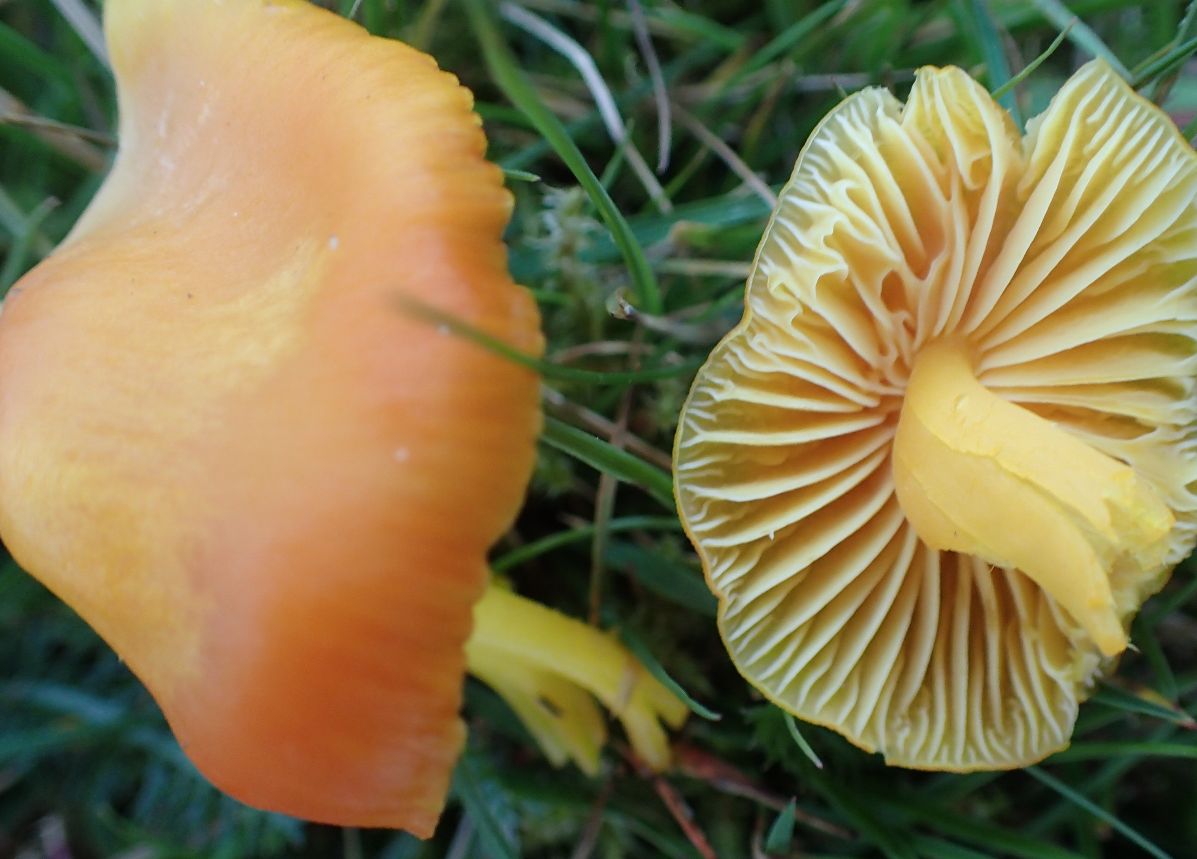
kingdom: Fungi
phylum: Basidiomycota
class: Agaricomycetes
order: Agaricales
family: Hygrophoraceae
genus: Hygrocybe
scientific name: Hygrocybe chlorophana
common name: gul vokshat
